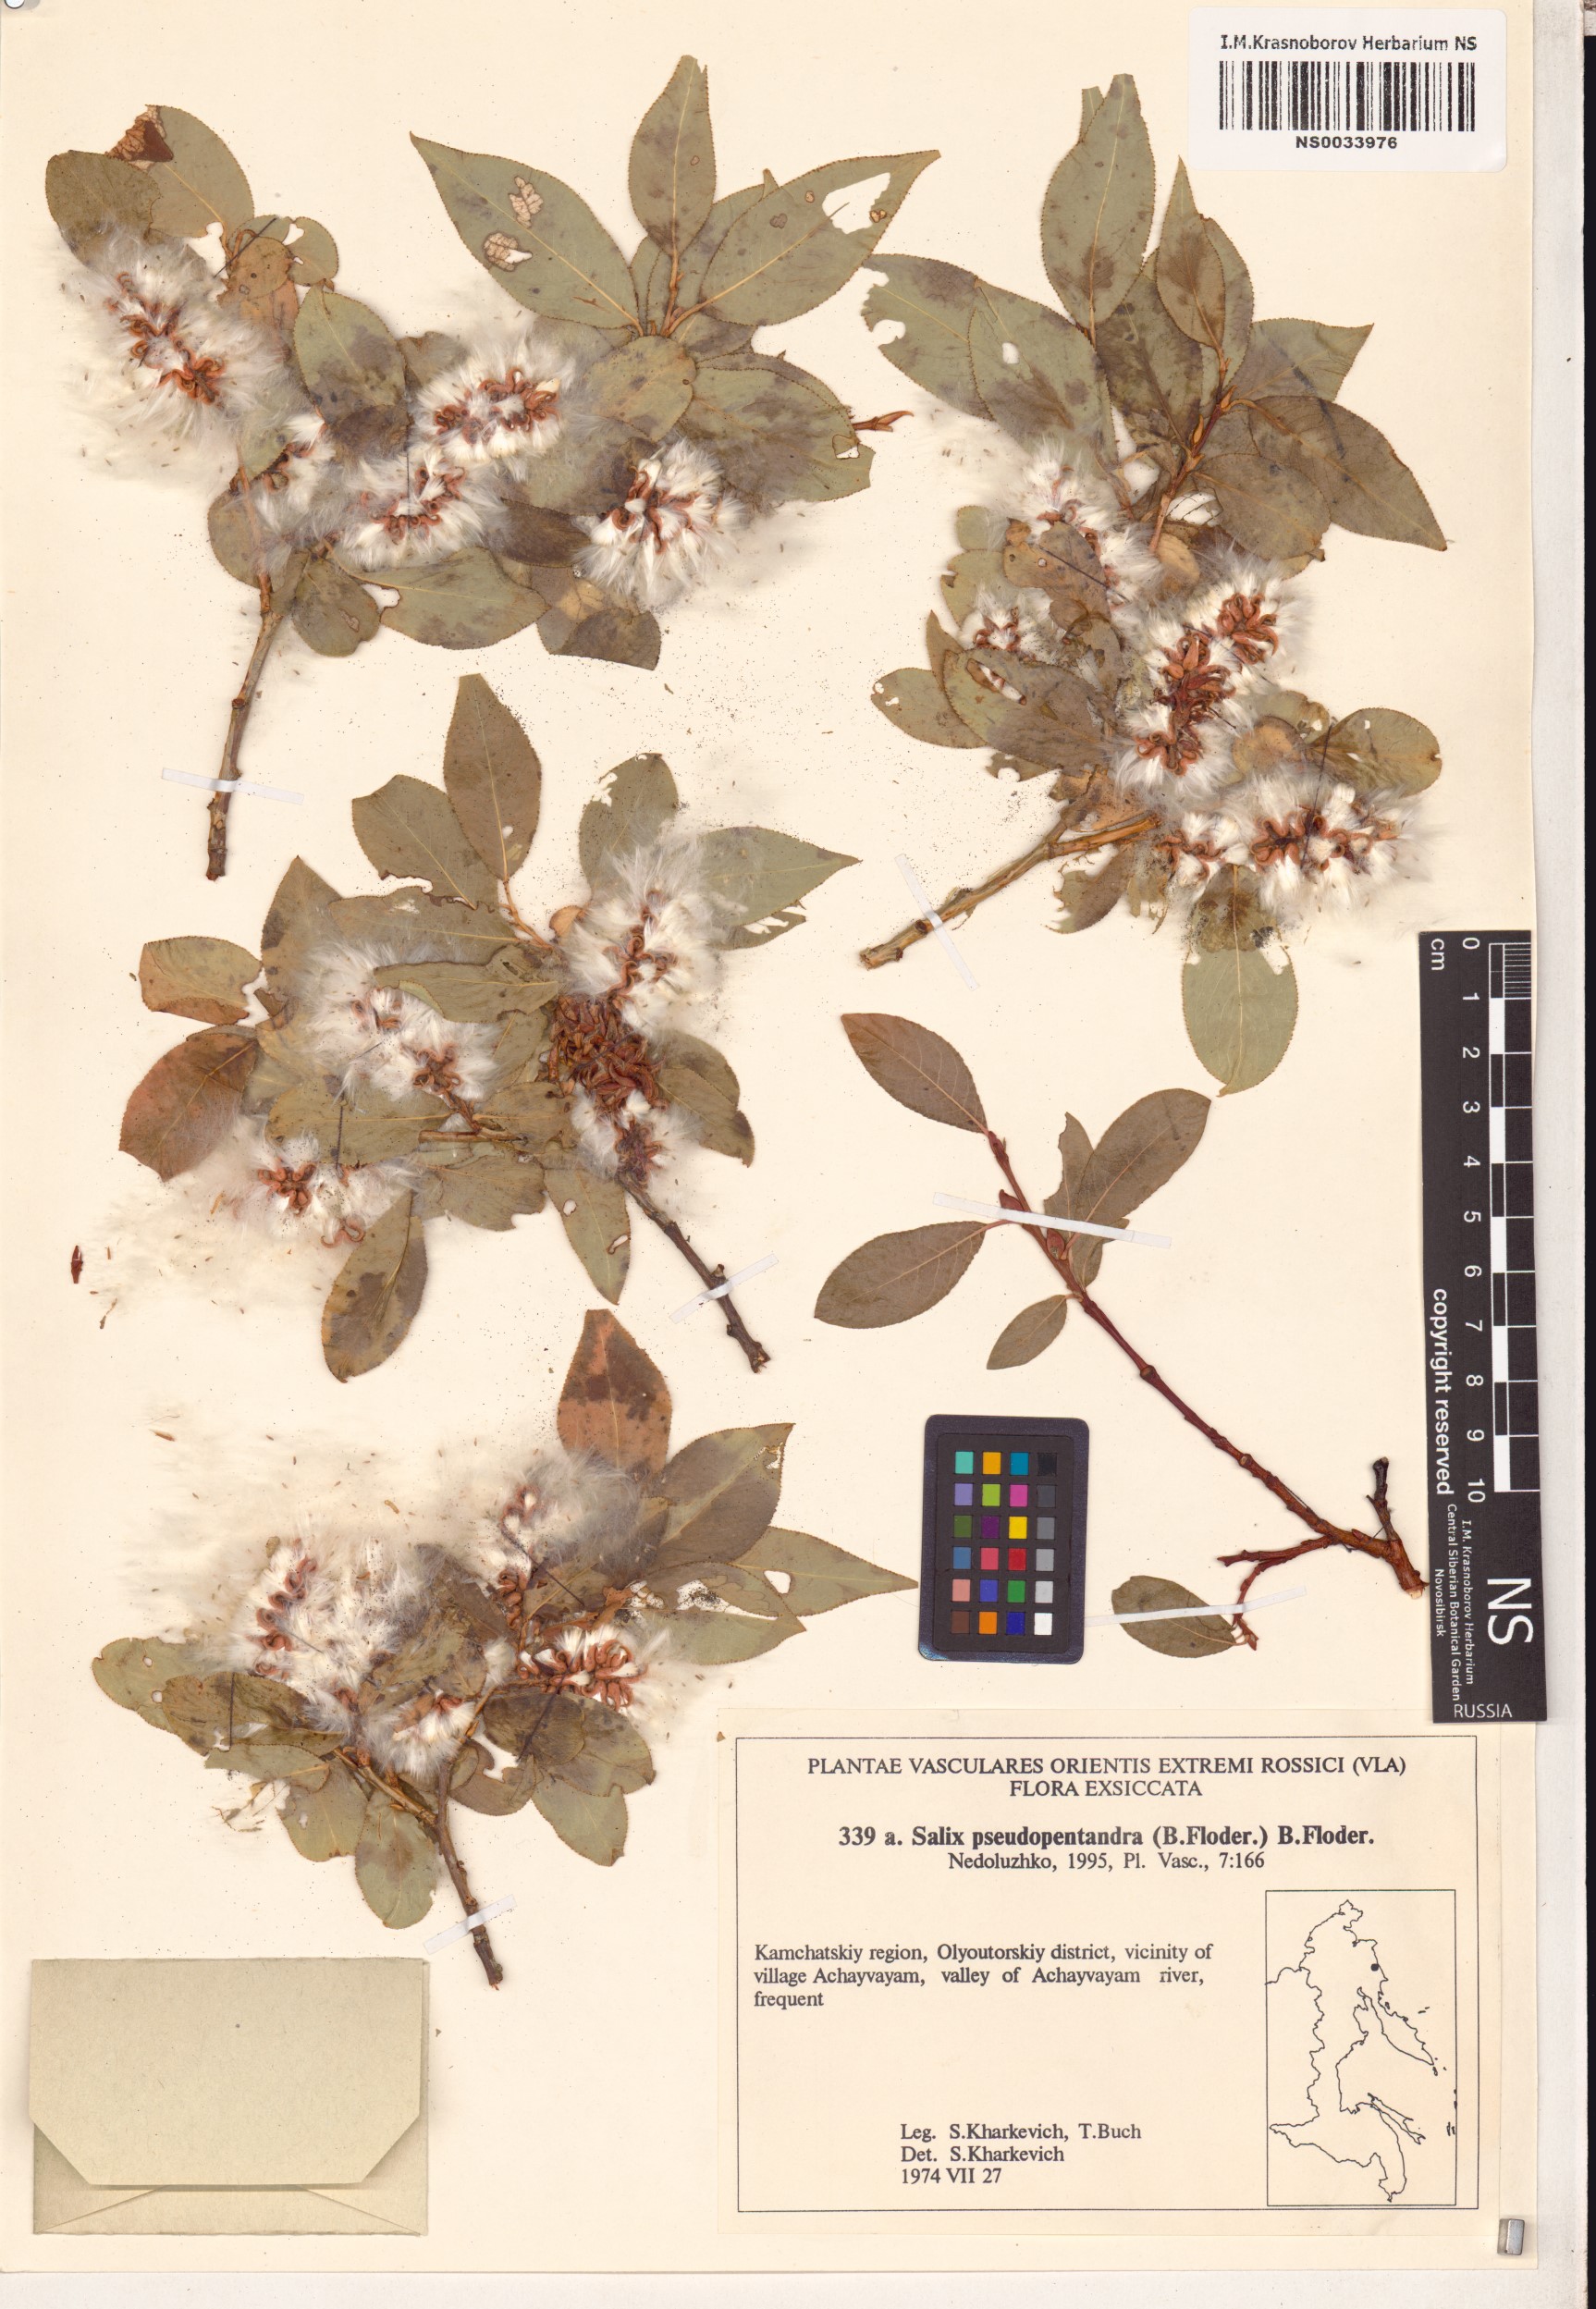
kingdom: Plantae
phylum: Tracheophyta
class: Magnoliopsida
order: Malpighiales
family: Salicaceae
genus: Salix
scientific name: Salix pseudopentandra
